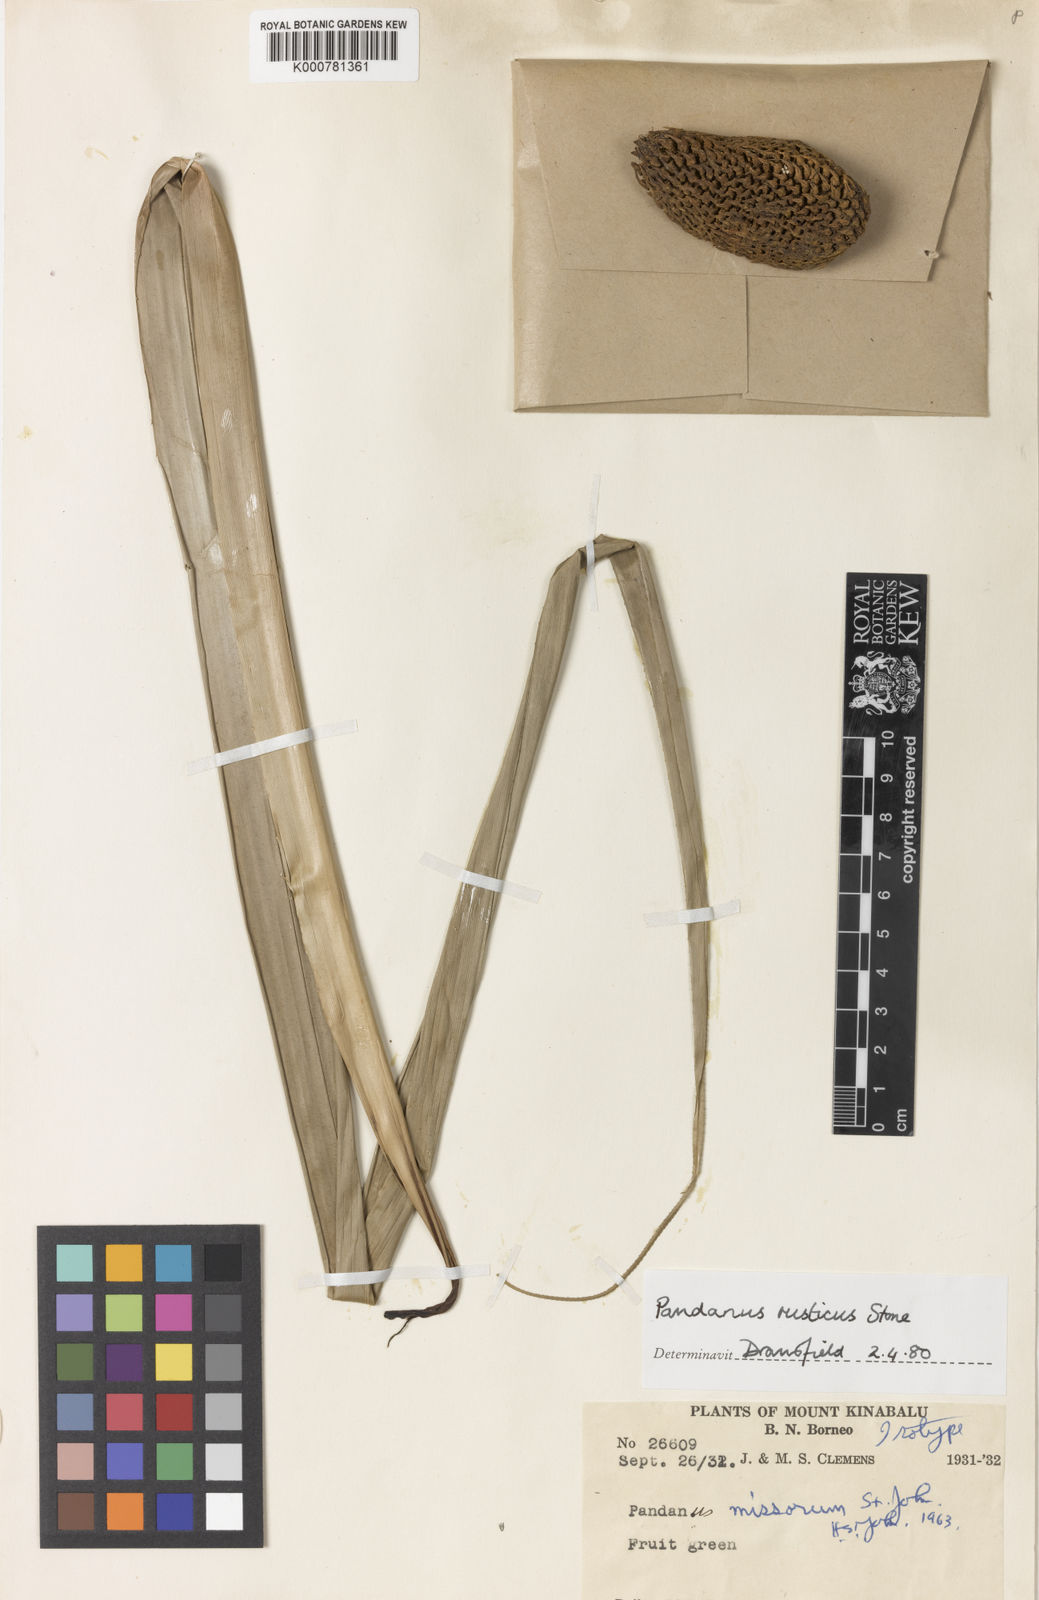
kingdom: Plantae
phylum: Tracheophyta
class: Liliopsida
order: Pandanales
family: Pandanaceae
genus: Benstonea
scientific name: Benstonea rustica
